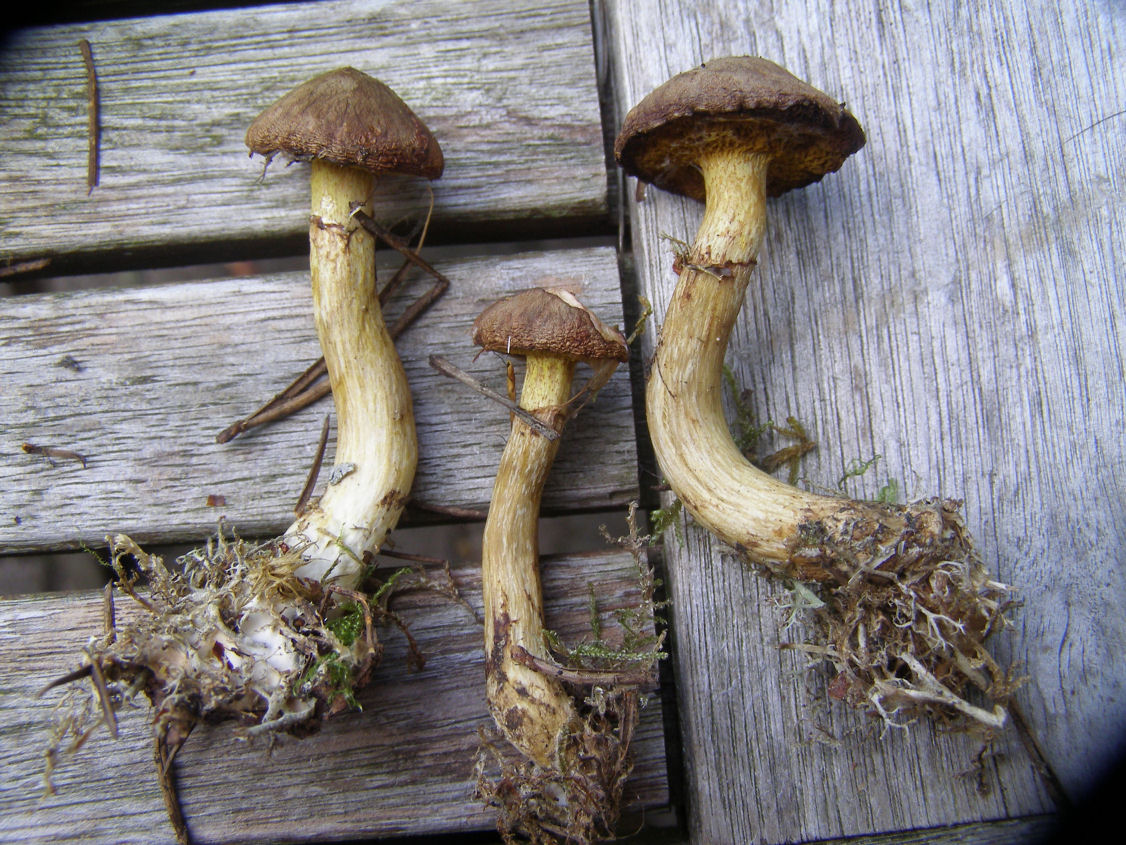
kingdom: Fungi
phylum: Basidiomycota
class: Agaricomycetes
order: Boletales
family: Suillaceae
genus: Suillus
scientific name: Suillus flavidus
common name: mose-slimrørhat
